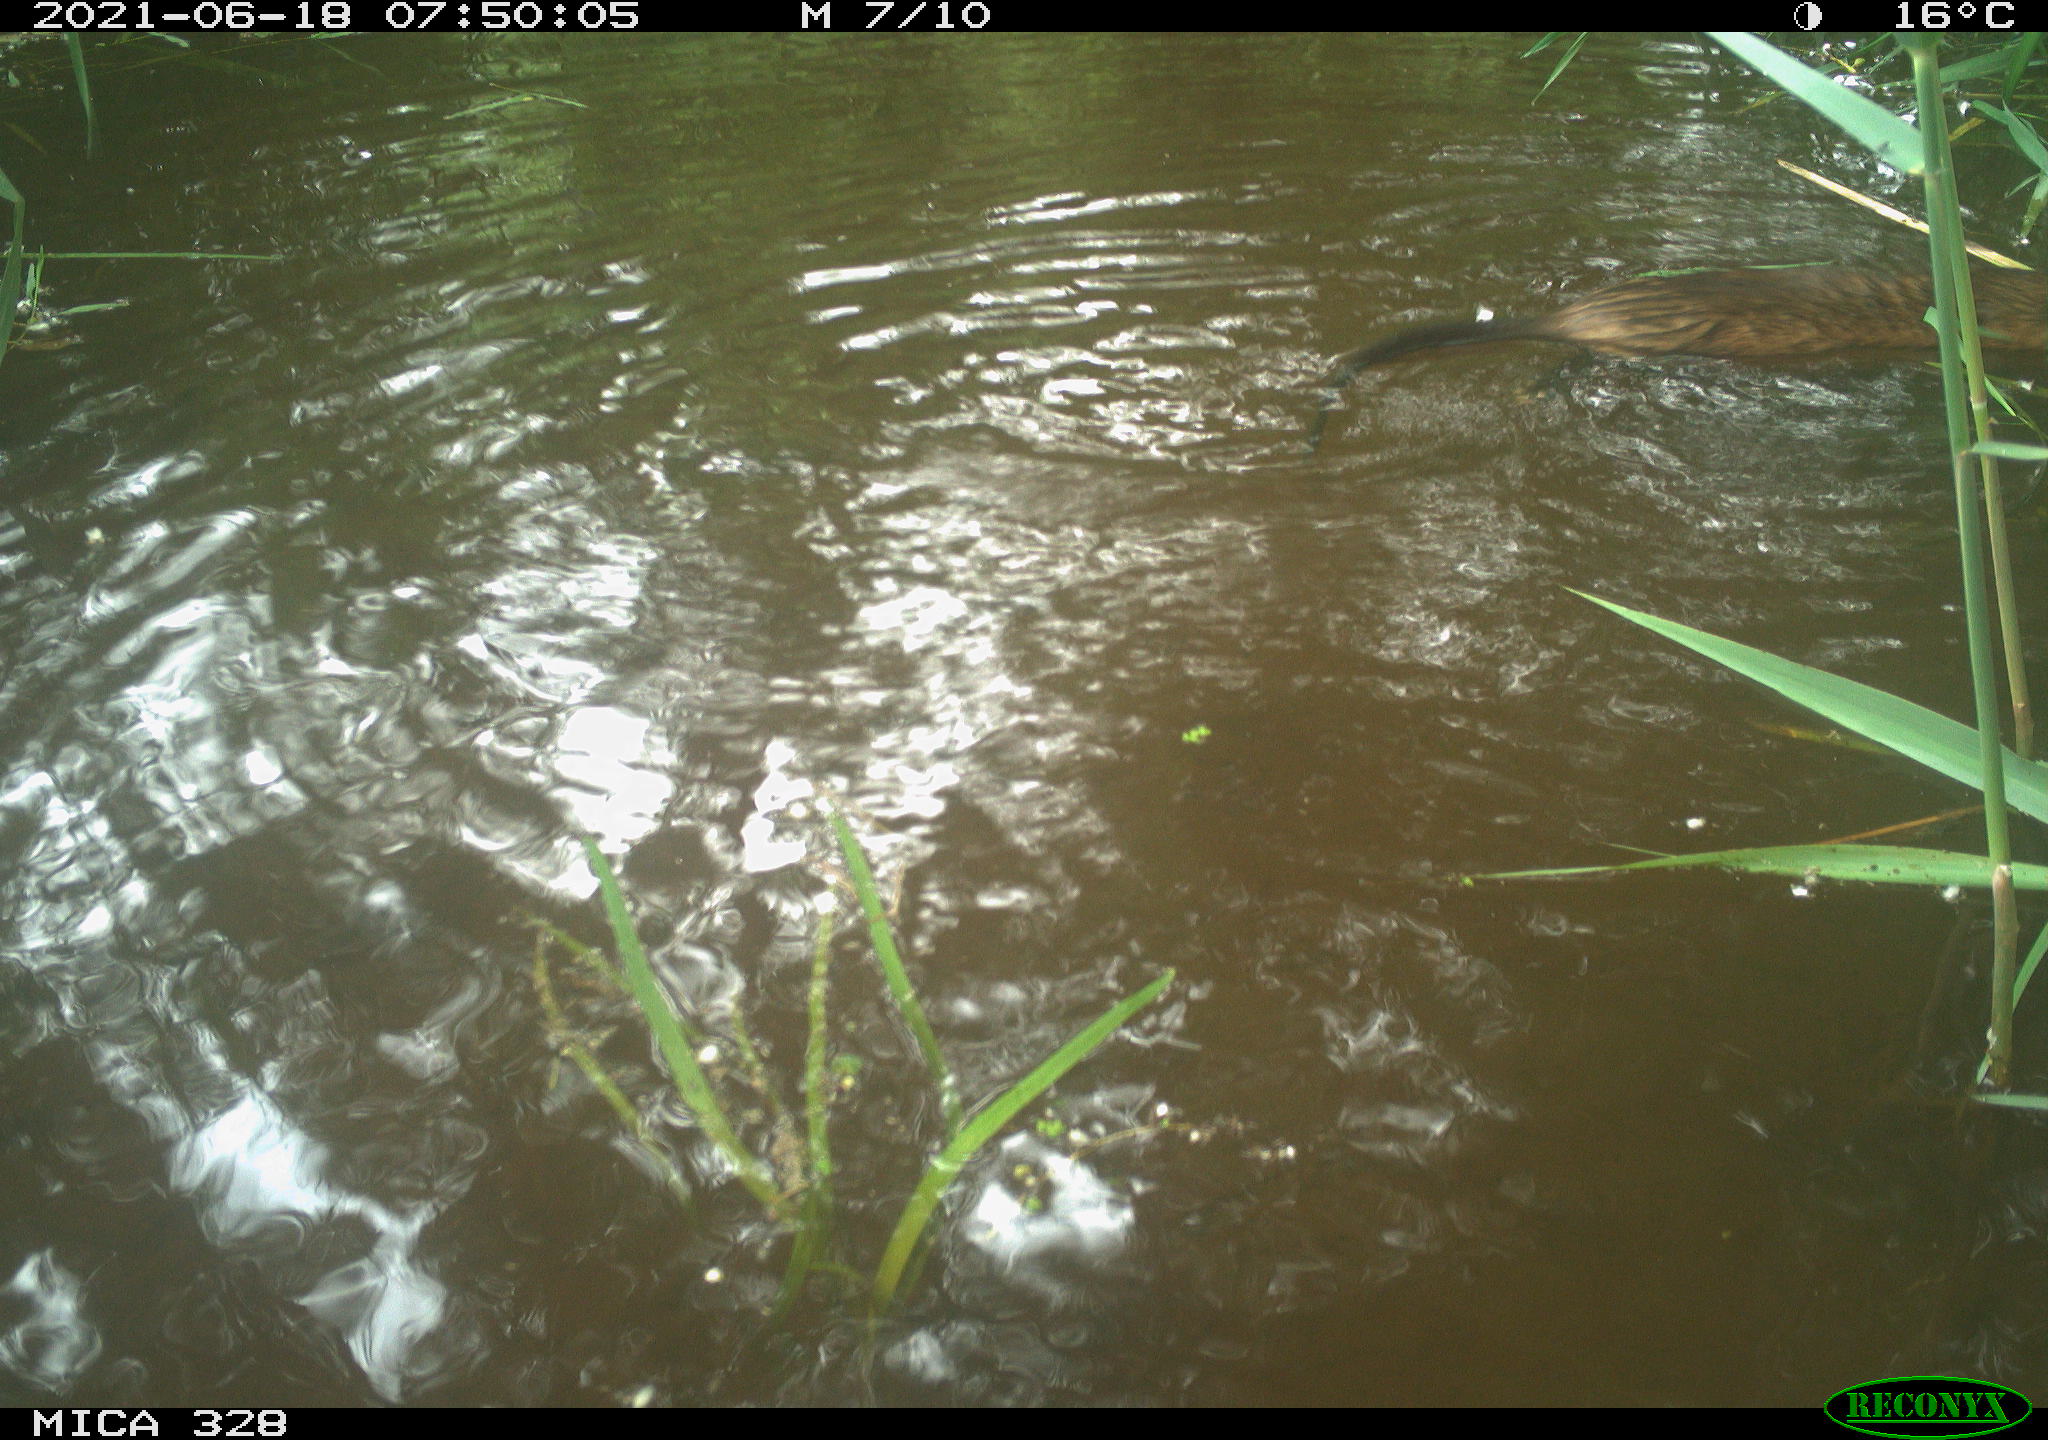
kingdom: Animalia
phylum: Chordata
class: Mammalia
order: Rodentia
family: Cricetidae
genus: Ondatra
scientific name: Ondatra zibethicus
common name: Muskrat
